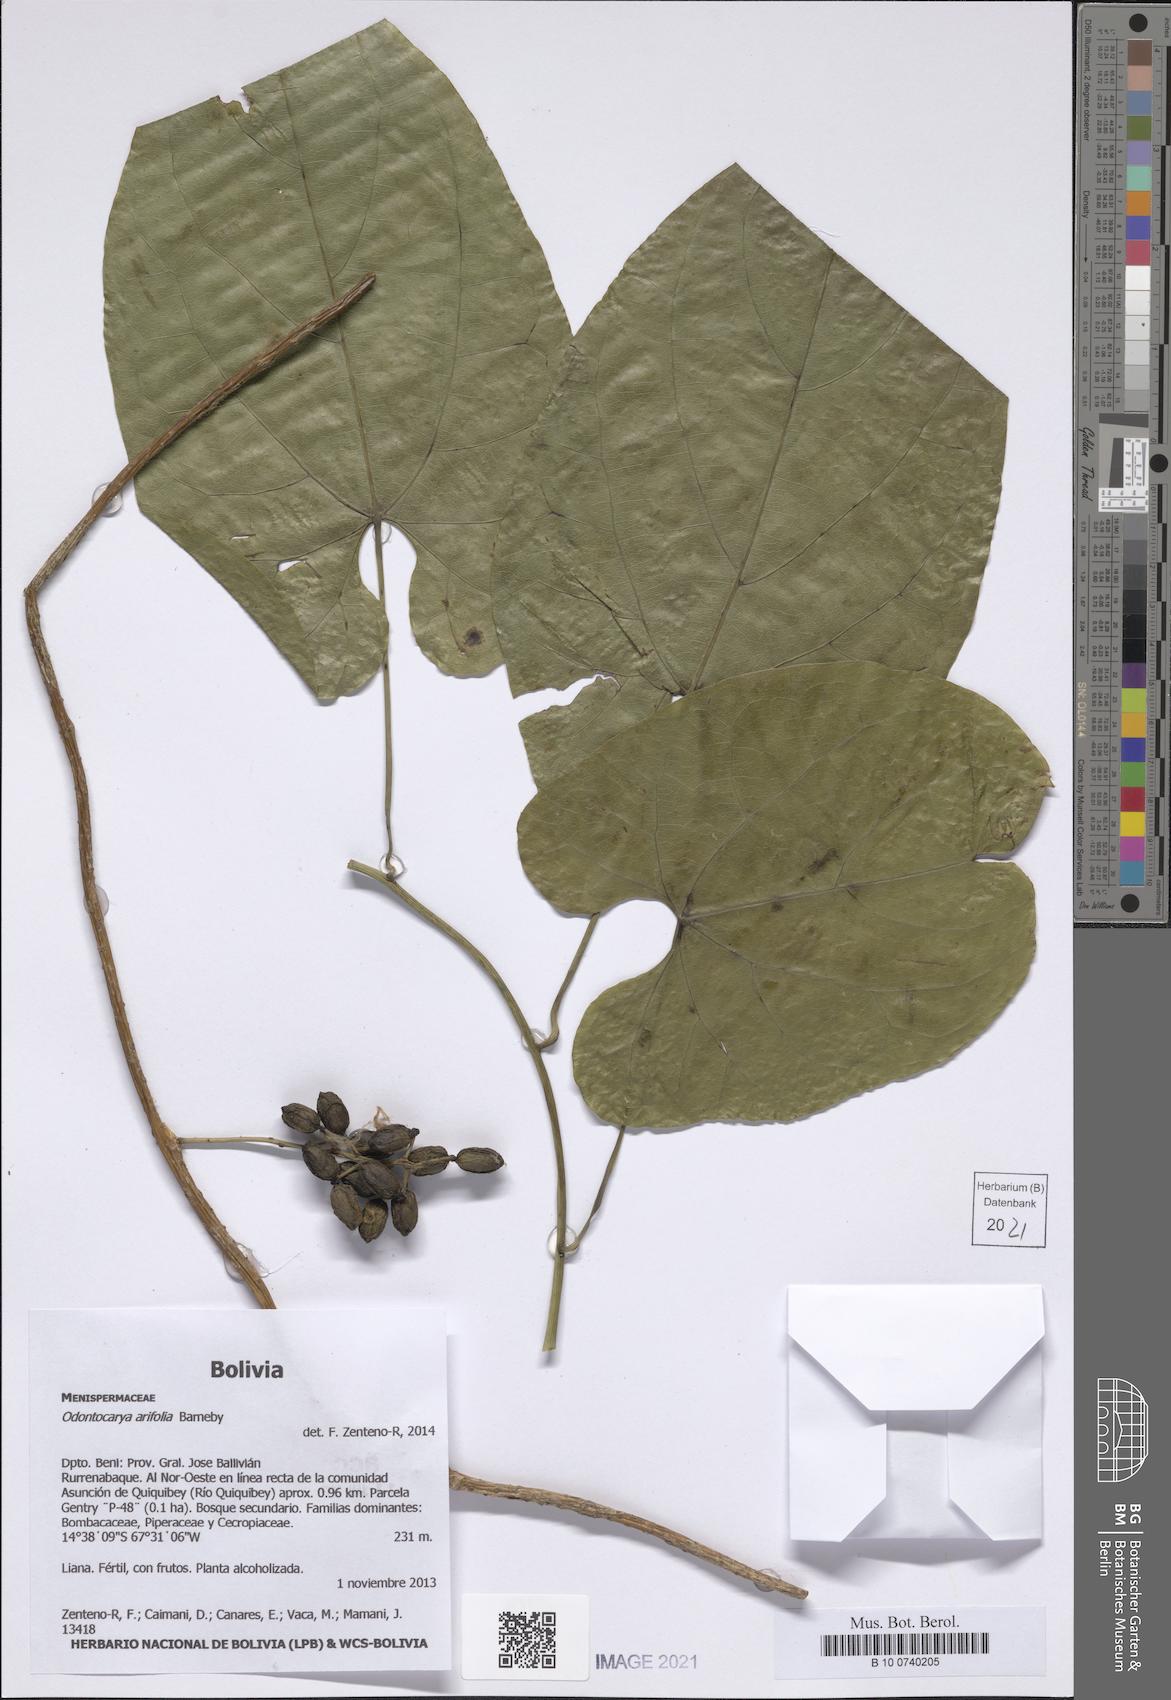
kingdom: Plantae
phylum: Tracheophyta
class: Magnoliopsida
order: Ranunculales
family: Menispermaceae
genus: Odontocarya
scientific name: Odontocarya membranacea
